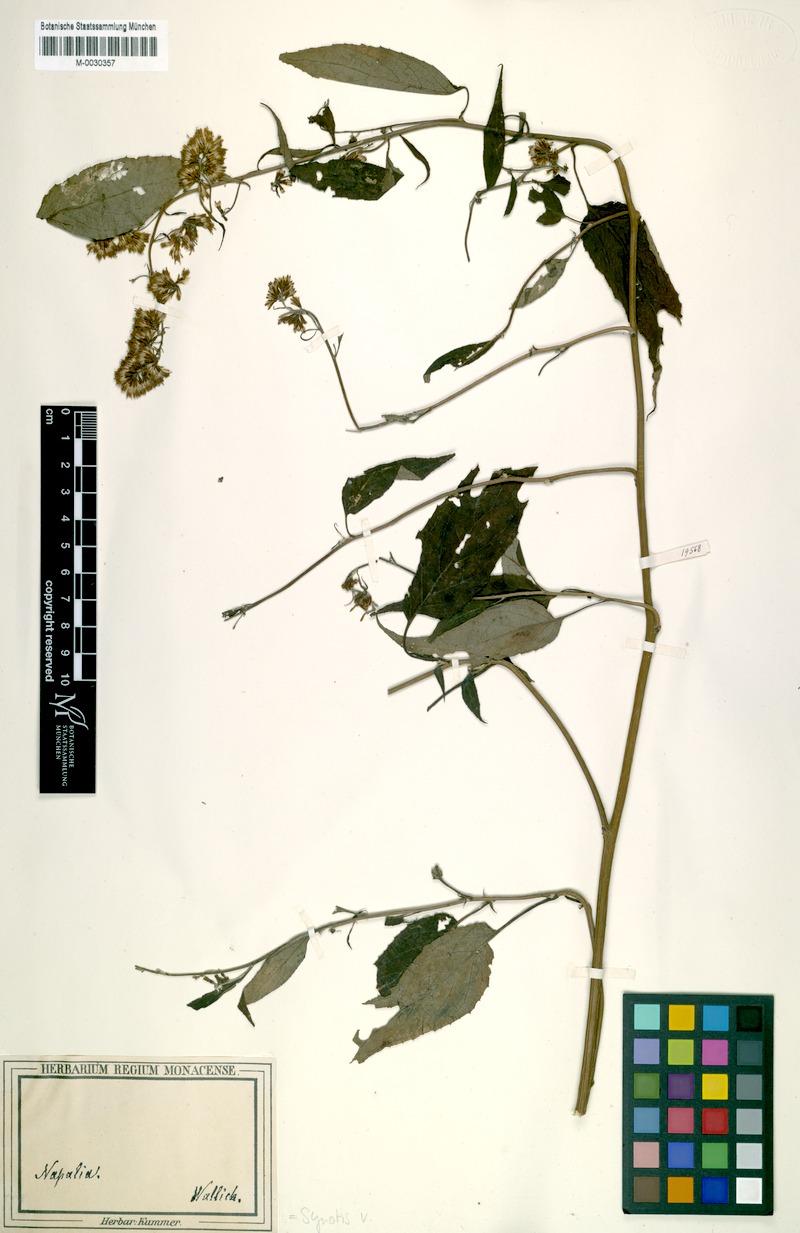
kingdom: Plantae
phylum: Tracheophyta
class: Magnoliopsida
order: Asterales
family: Asteraceae
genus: Synotis
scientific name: Synotis vagans
